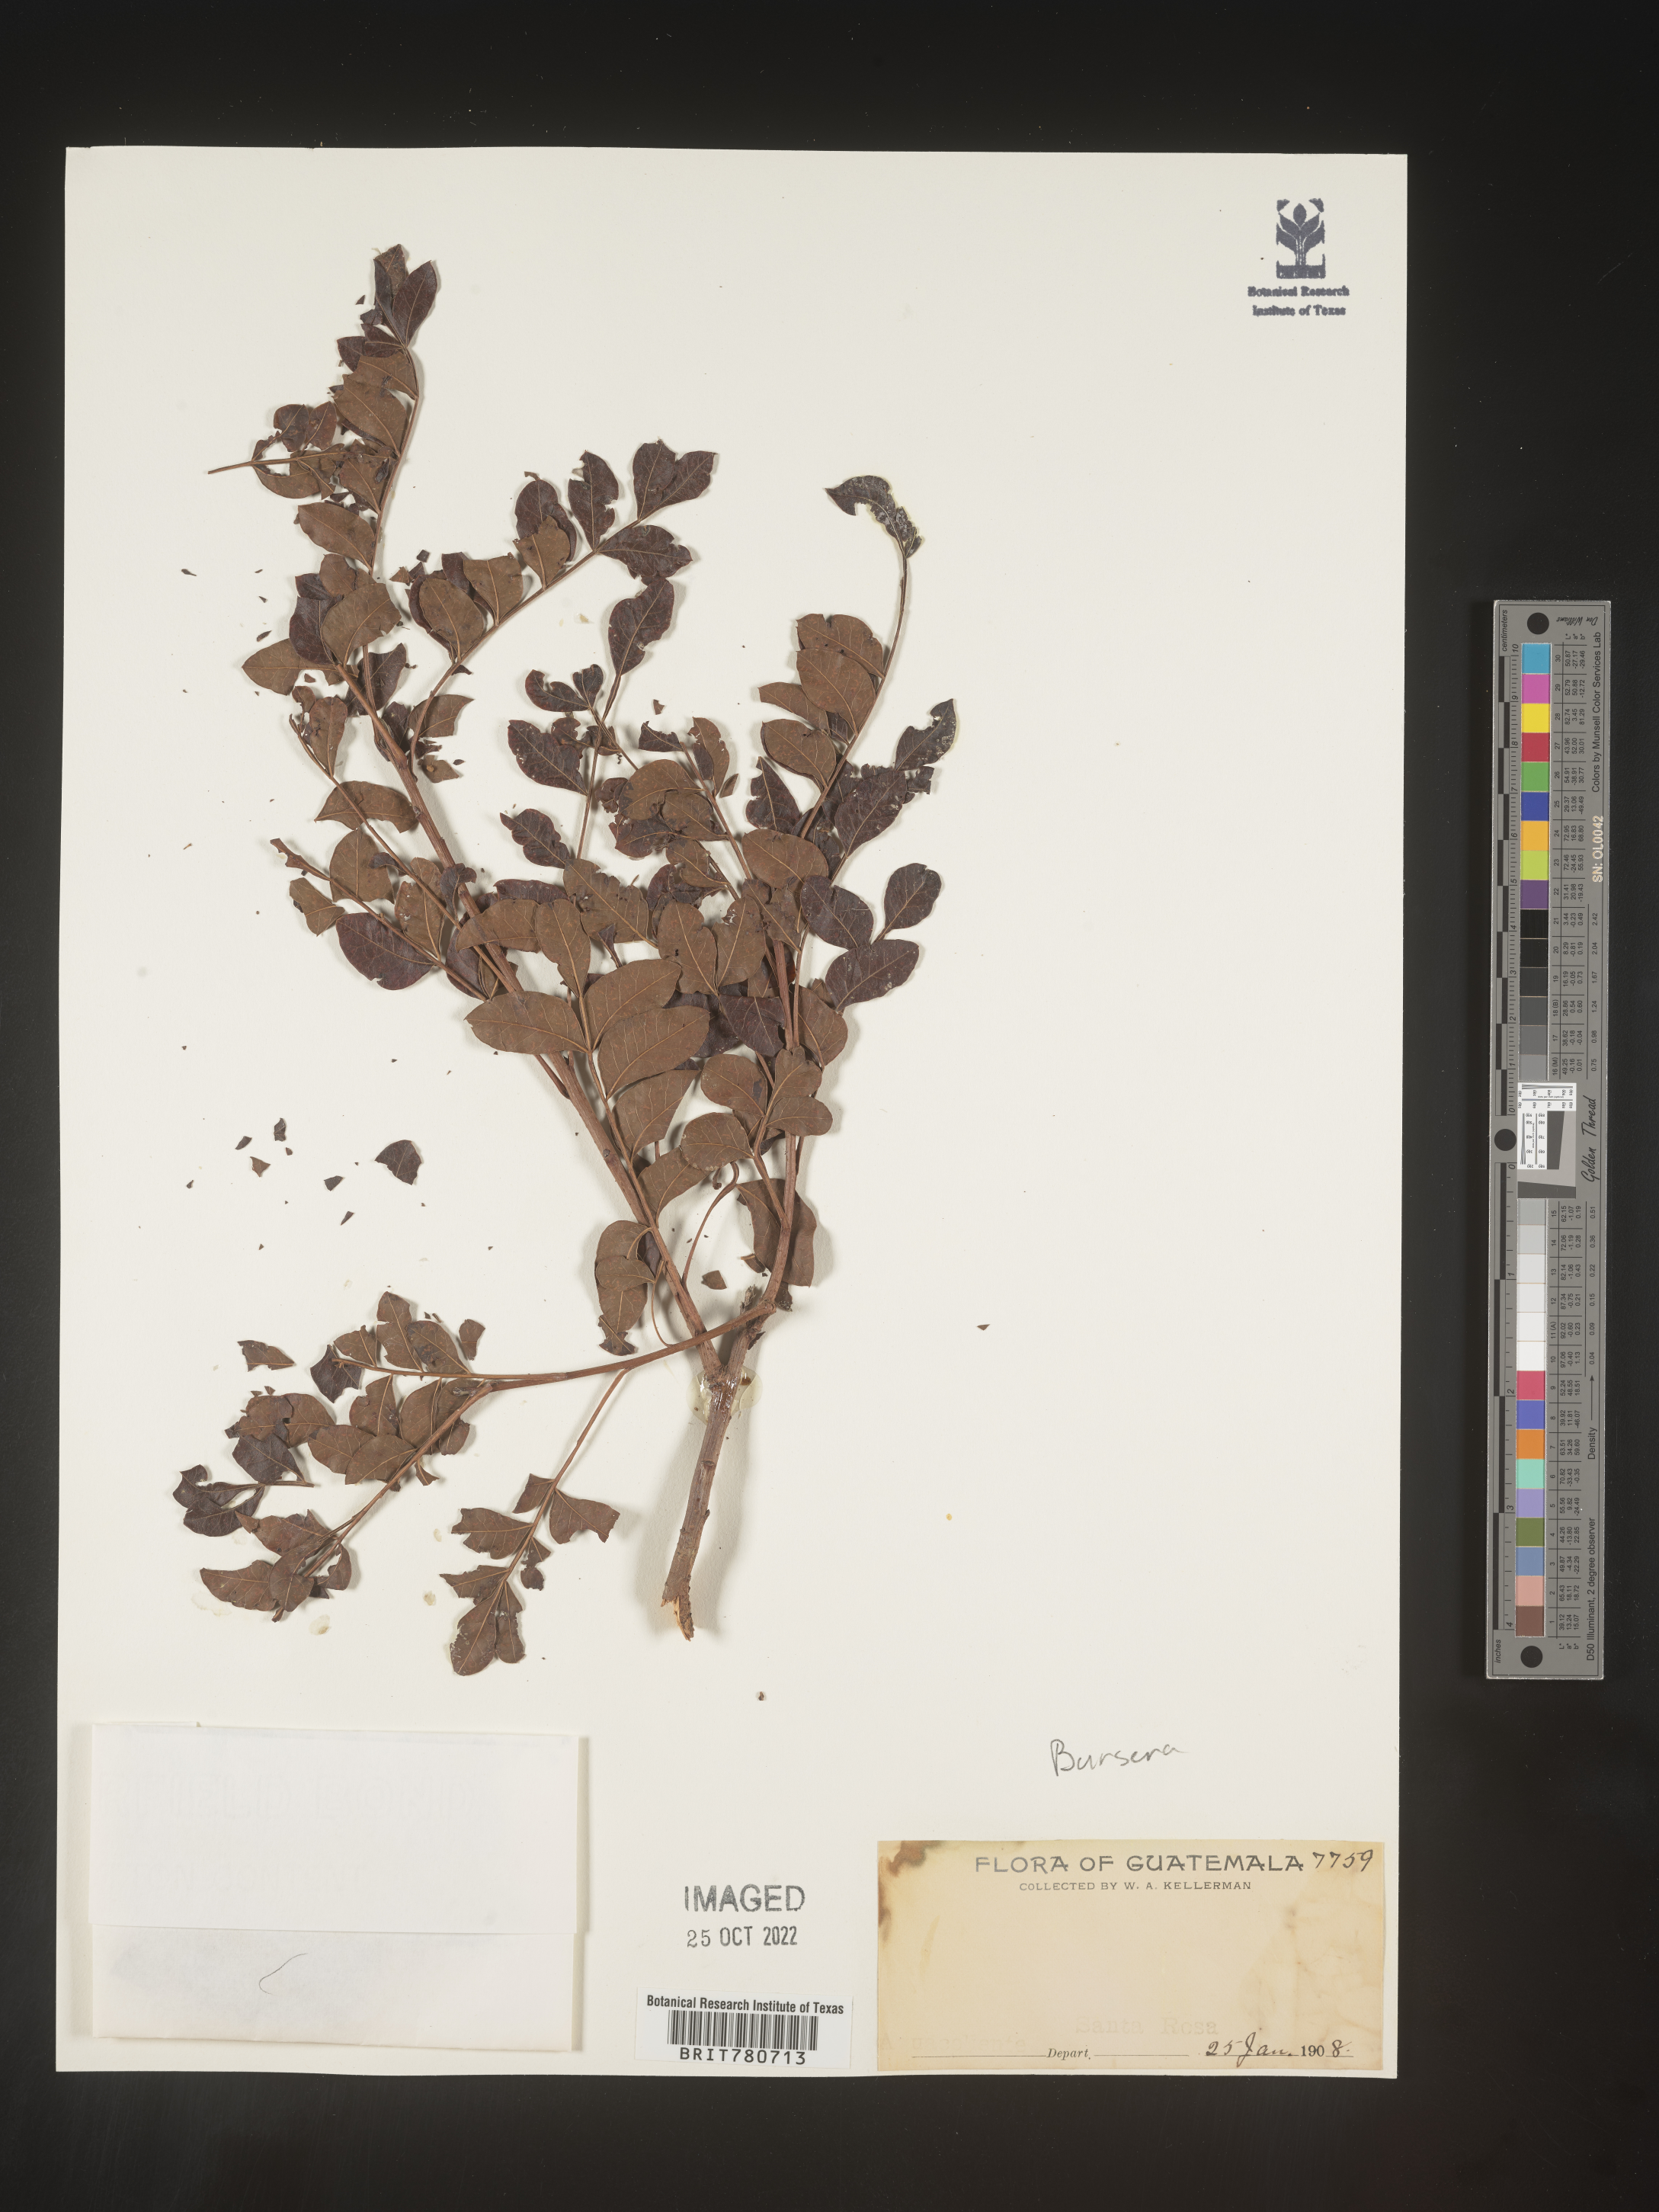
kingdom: Plantae
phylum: Tracheophyta
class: Magnoliopsida
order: Sapindales
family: Burseraceae
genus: Protium
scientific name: Protium
